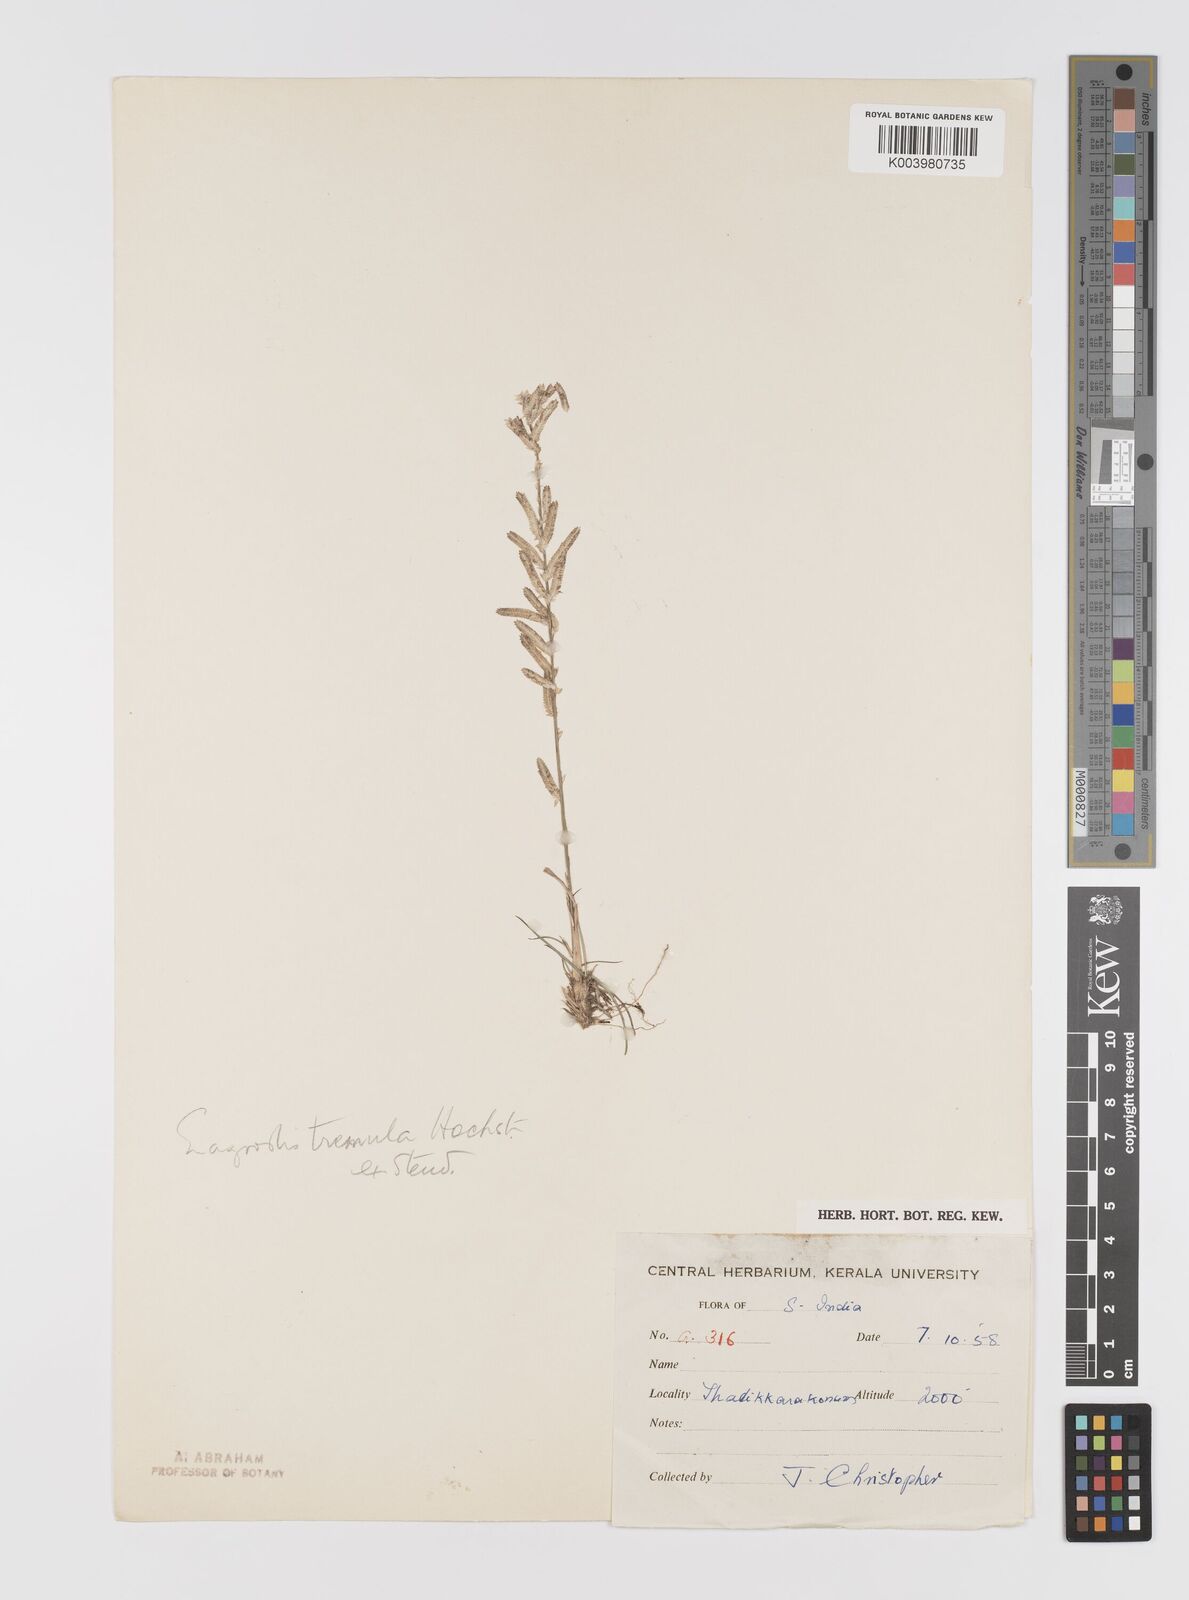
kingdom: Plantae
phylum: Tracheophyta
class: Liliopsida
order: Poales
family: Poaceae
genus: Eragrostis
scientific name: Eragrostis tremula
